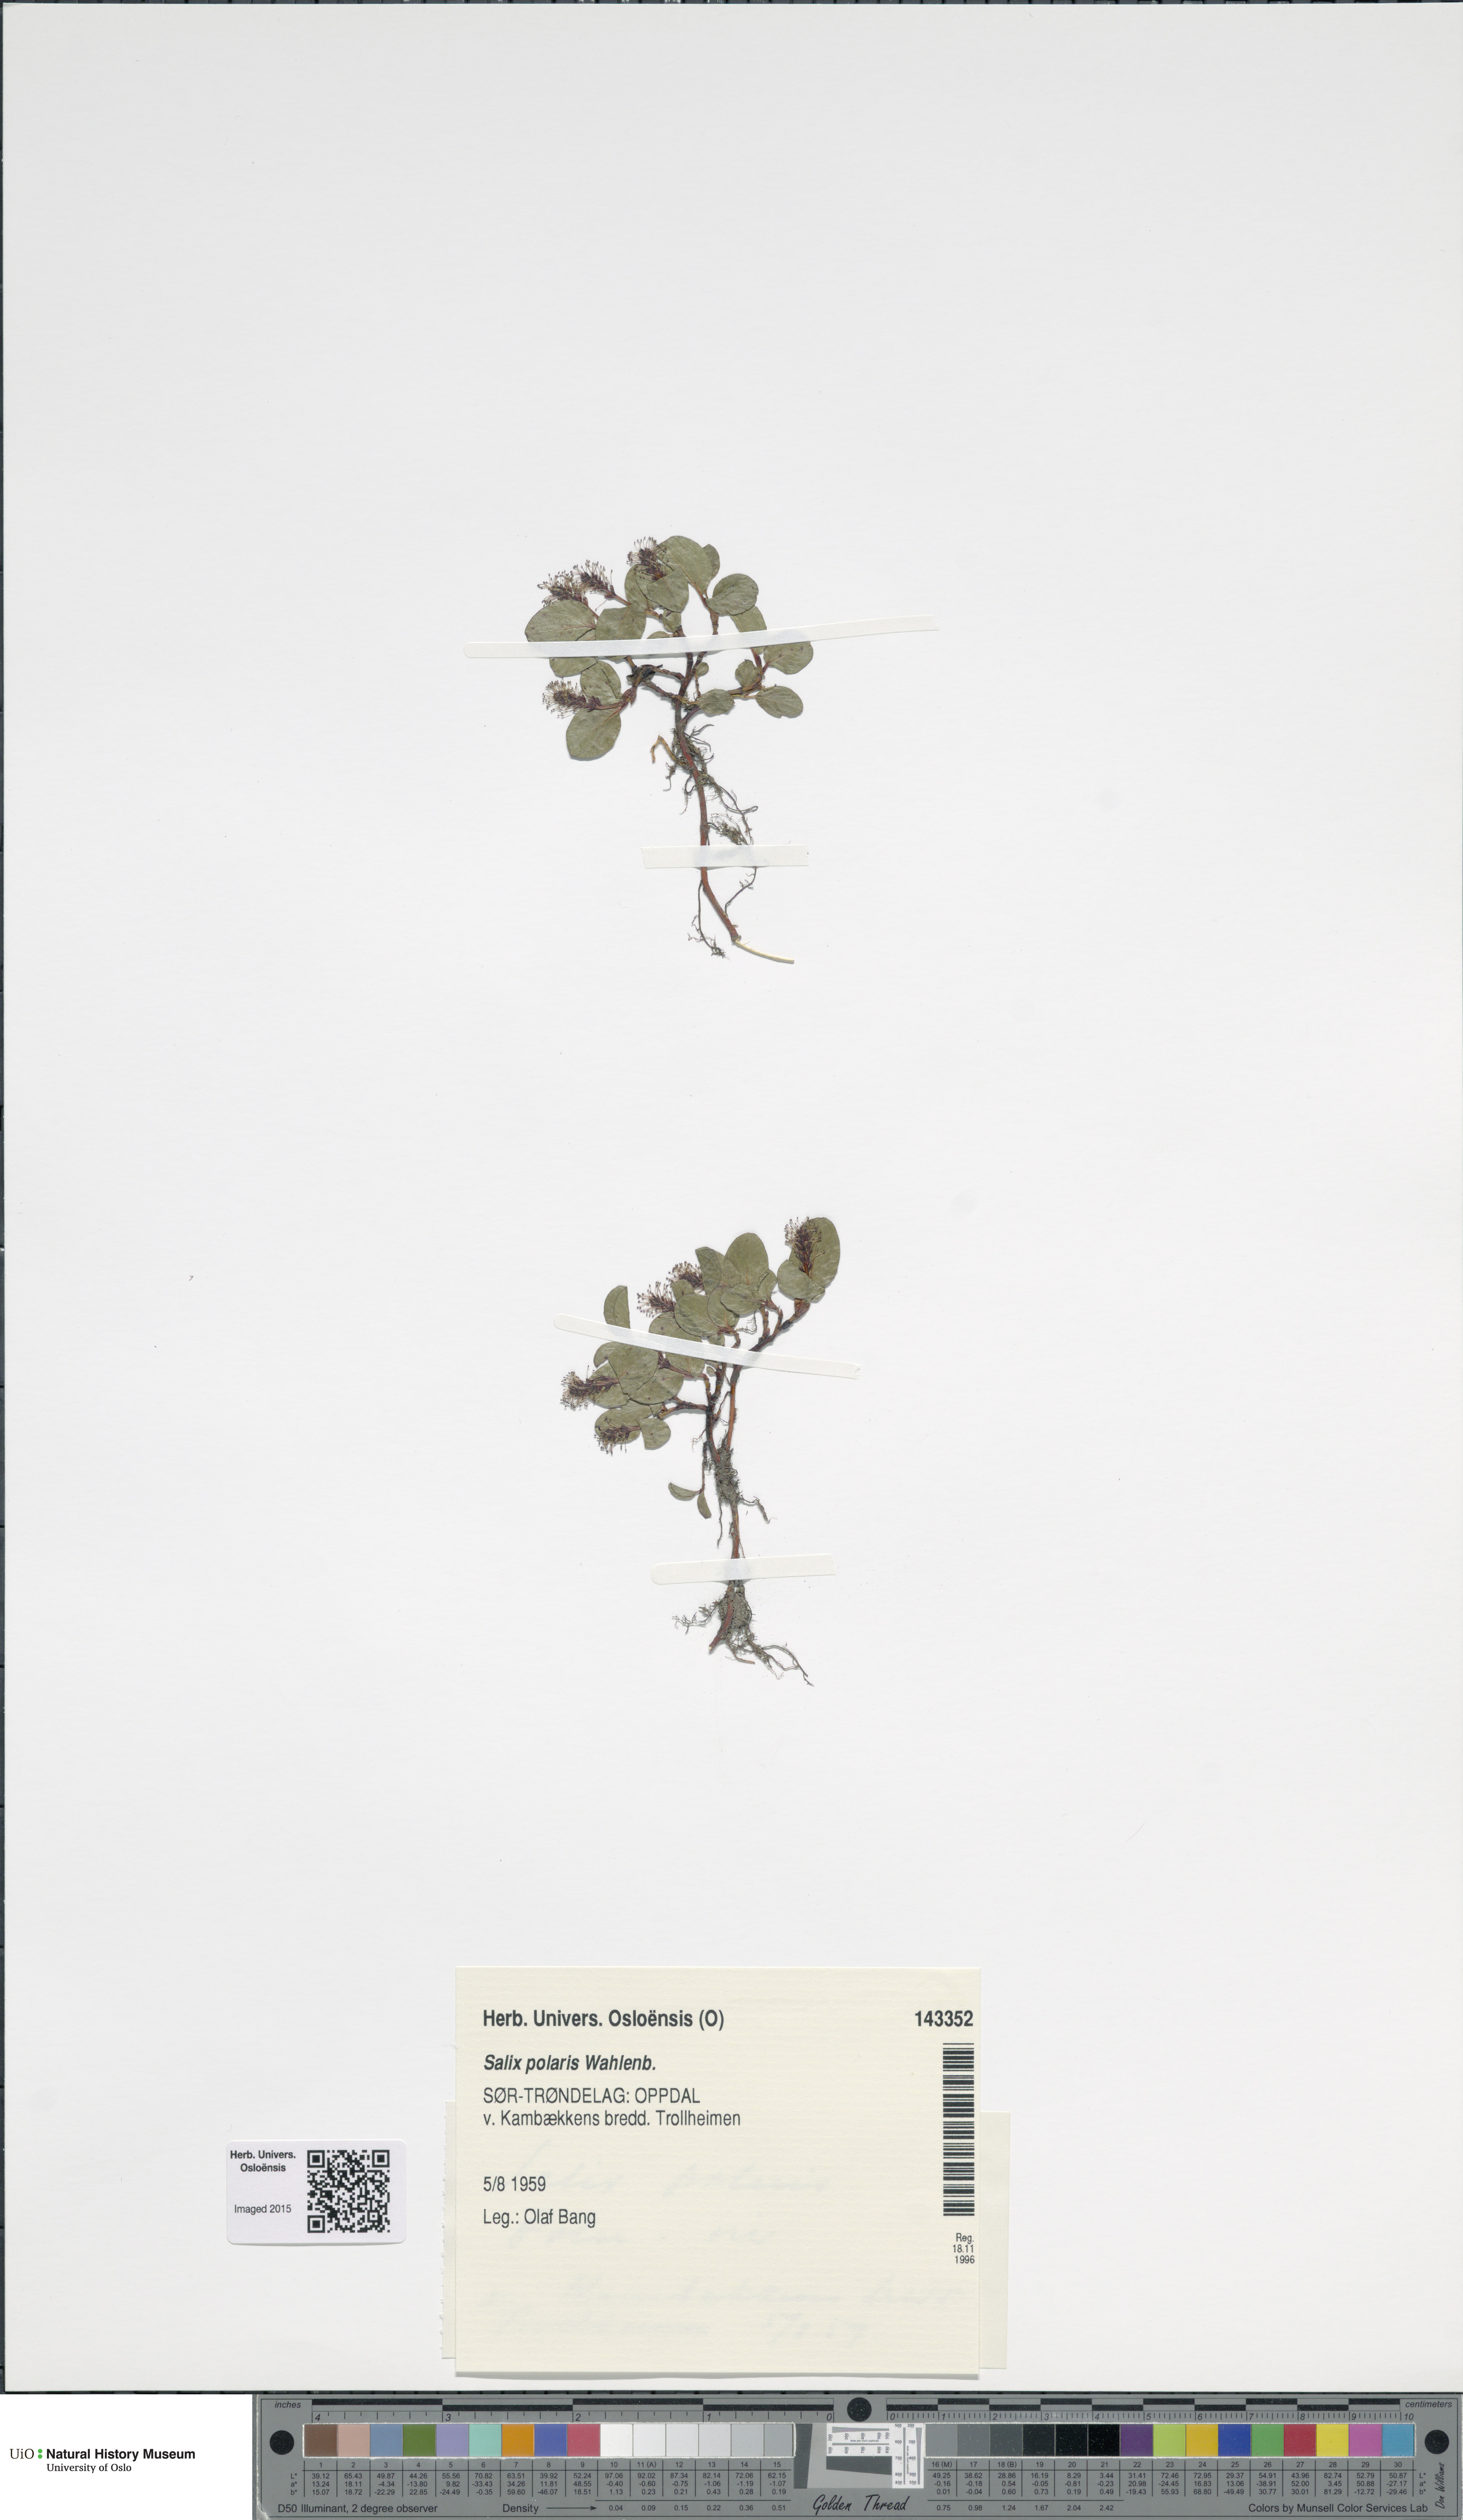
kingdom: Plantae
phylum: Tracheophyta
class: Magnoliopsida
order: Malpighiales
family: Salicaceae
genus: Salix
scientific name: Salix polaris
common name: Polar willow
